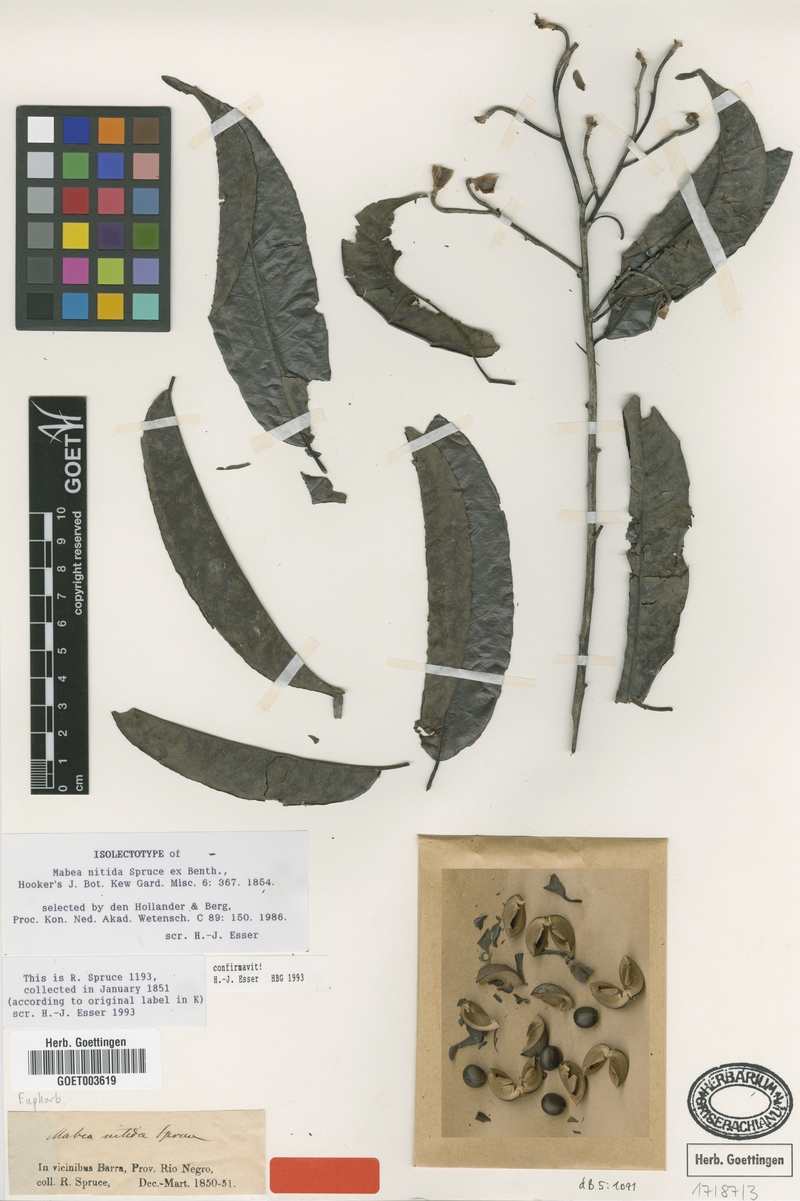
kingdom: Plantae
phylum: Tracheophyta
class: Magnoliopsida
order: Malpighiales
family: Euphorbiaceae
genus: Mabea
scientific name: Mabea nitida
